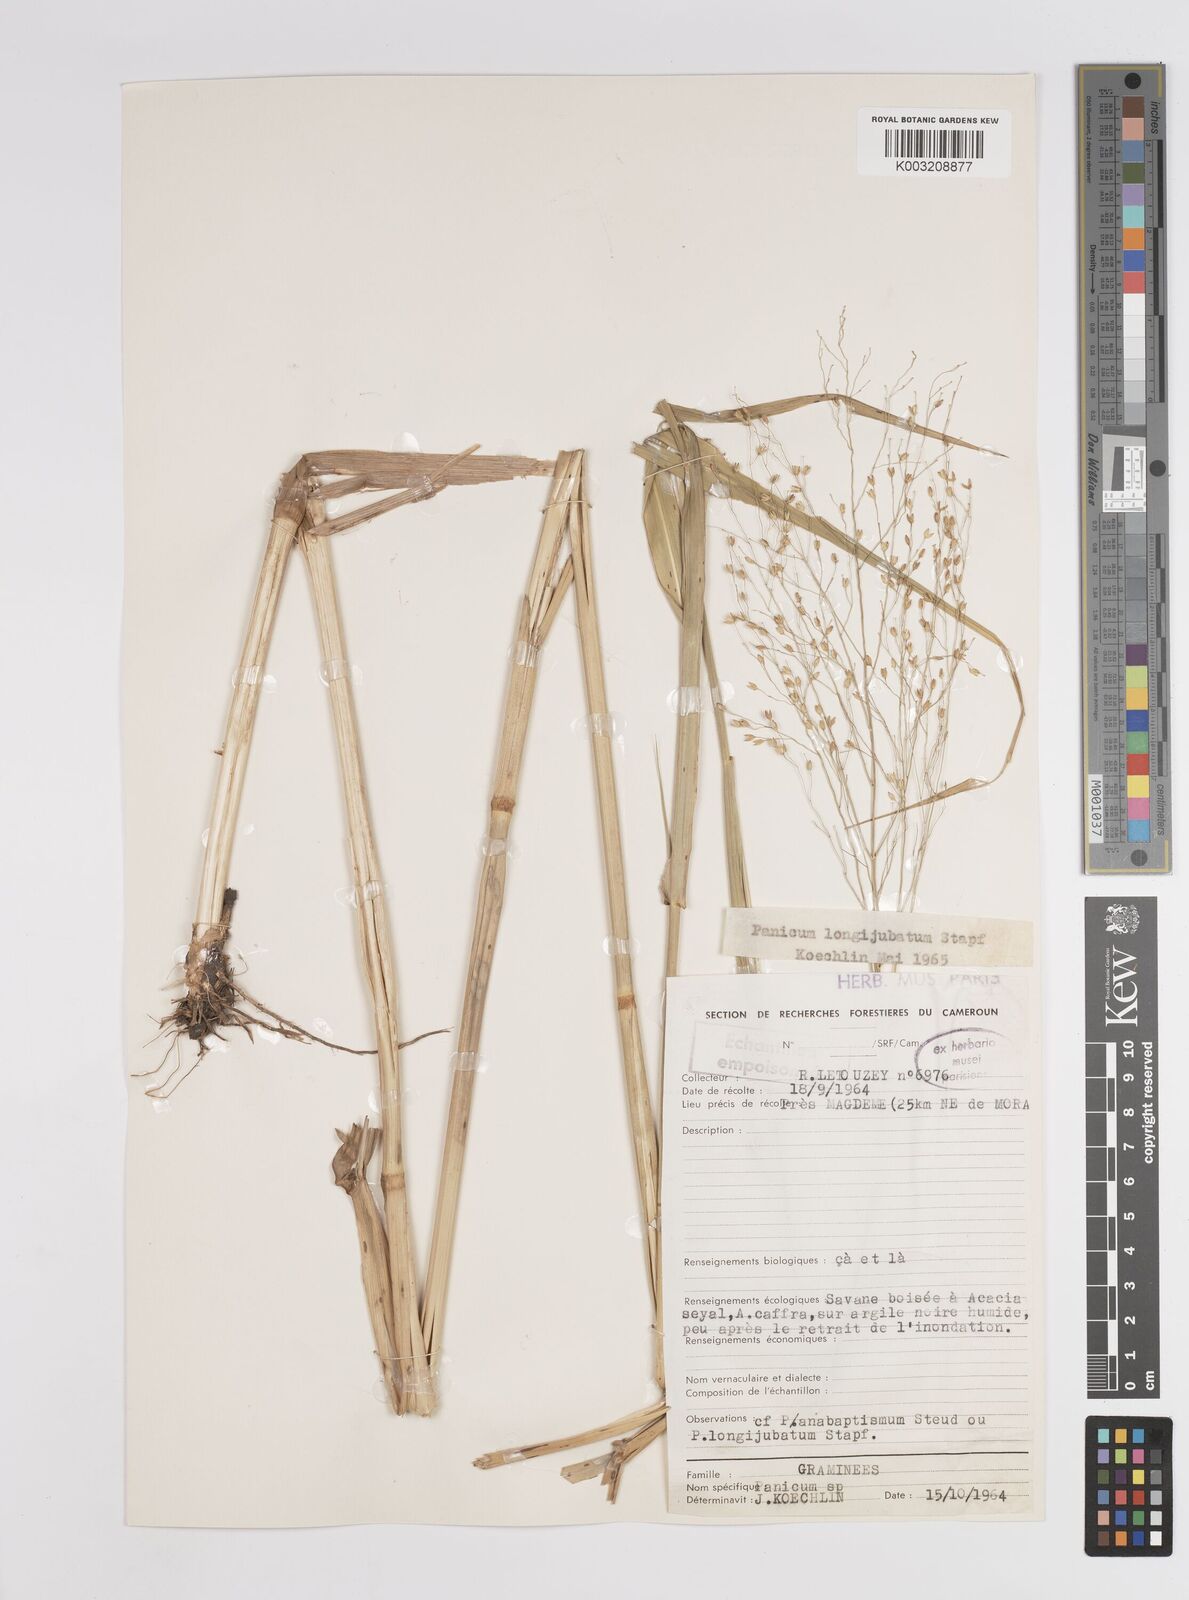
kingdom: Plantae
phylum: Tracheophyta
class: Liliopsida
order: Poales
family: Poaceae
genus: Panicum
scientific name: Panicum subalbidum
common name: Elbow buffalo grass
